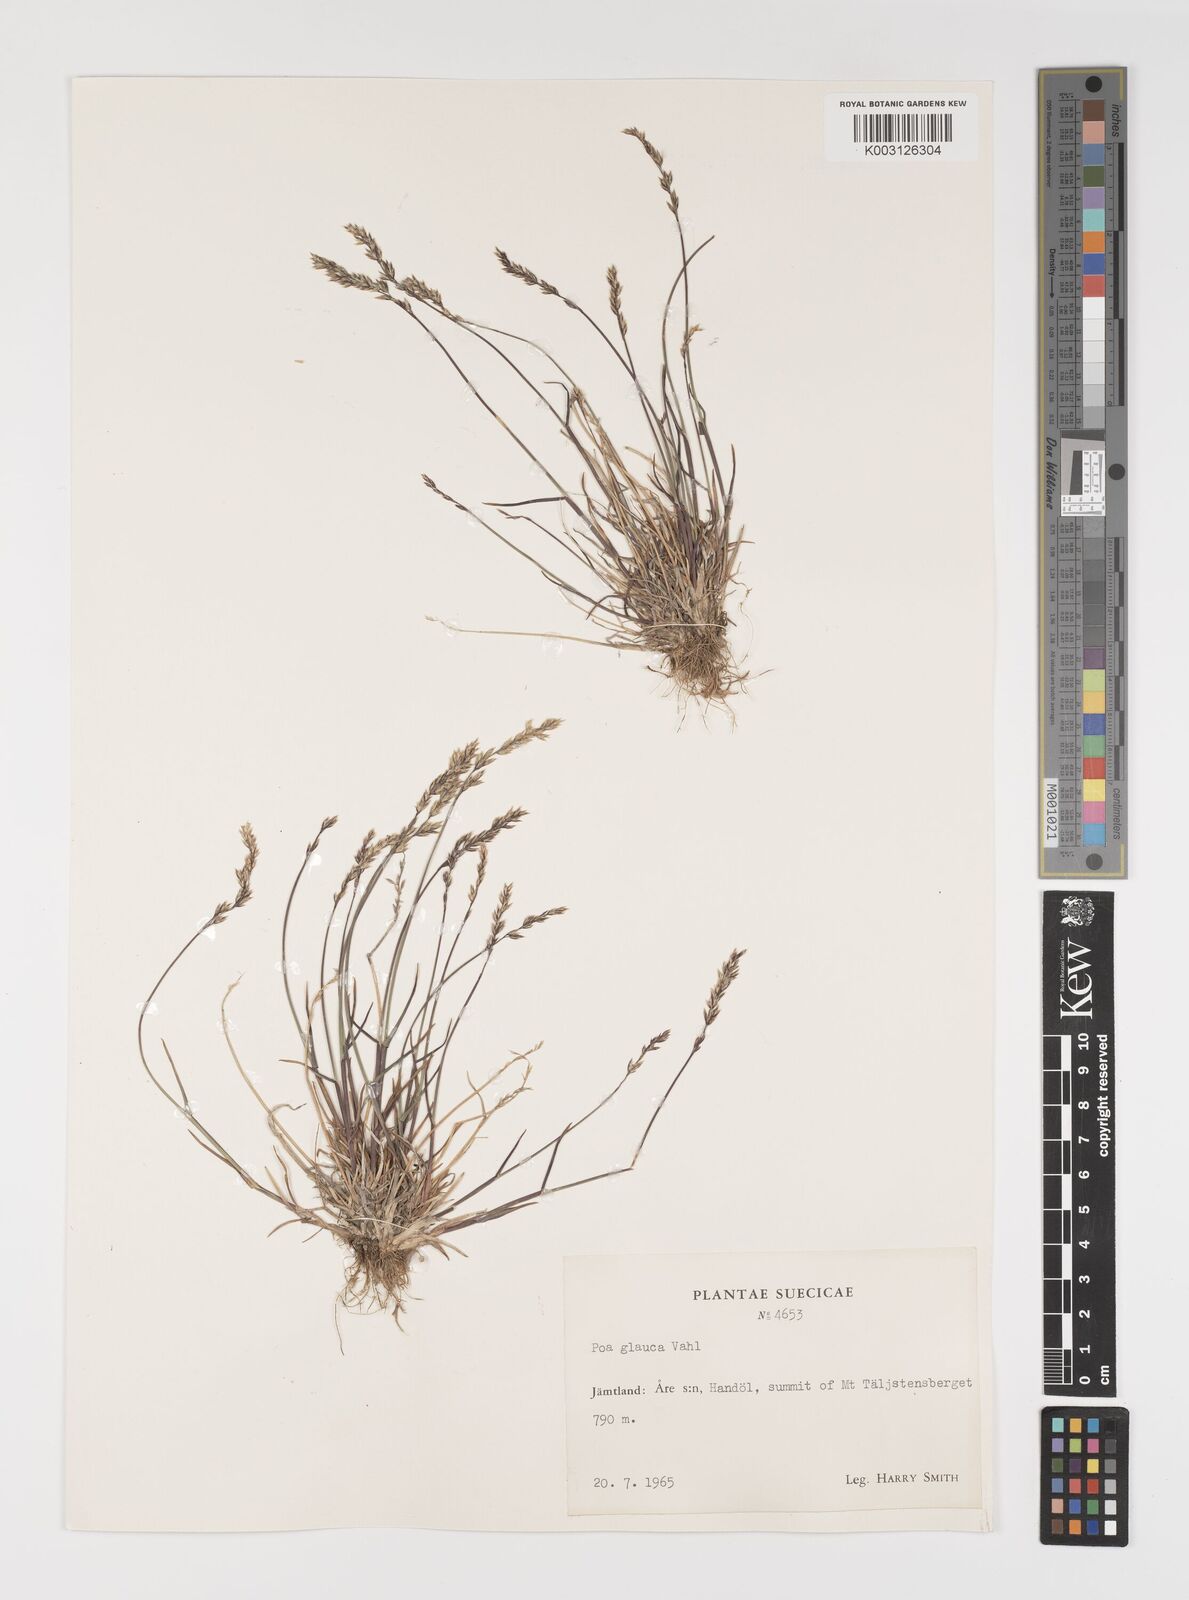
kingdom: Plantae
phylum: Tracheophyta
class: Liliopsida
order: Poales
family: Poaceae
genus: Poa
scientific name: Poa glauca
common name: Glaucous bluegrass
